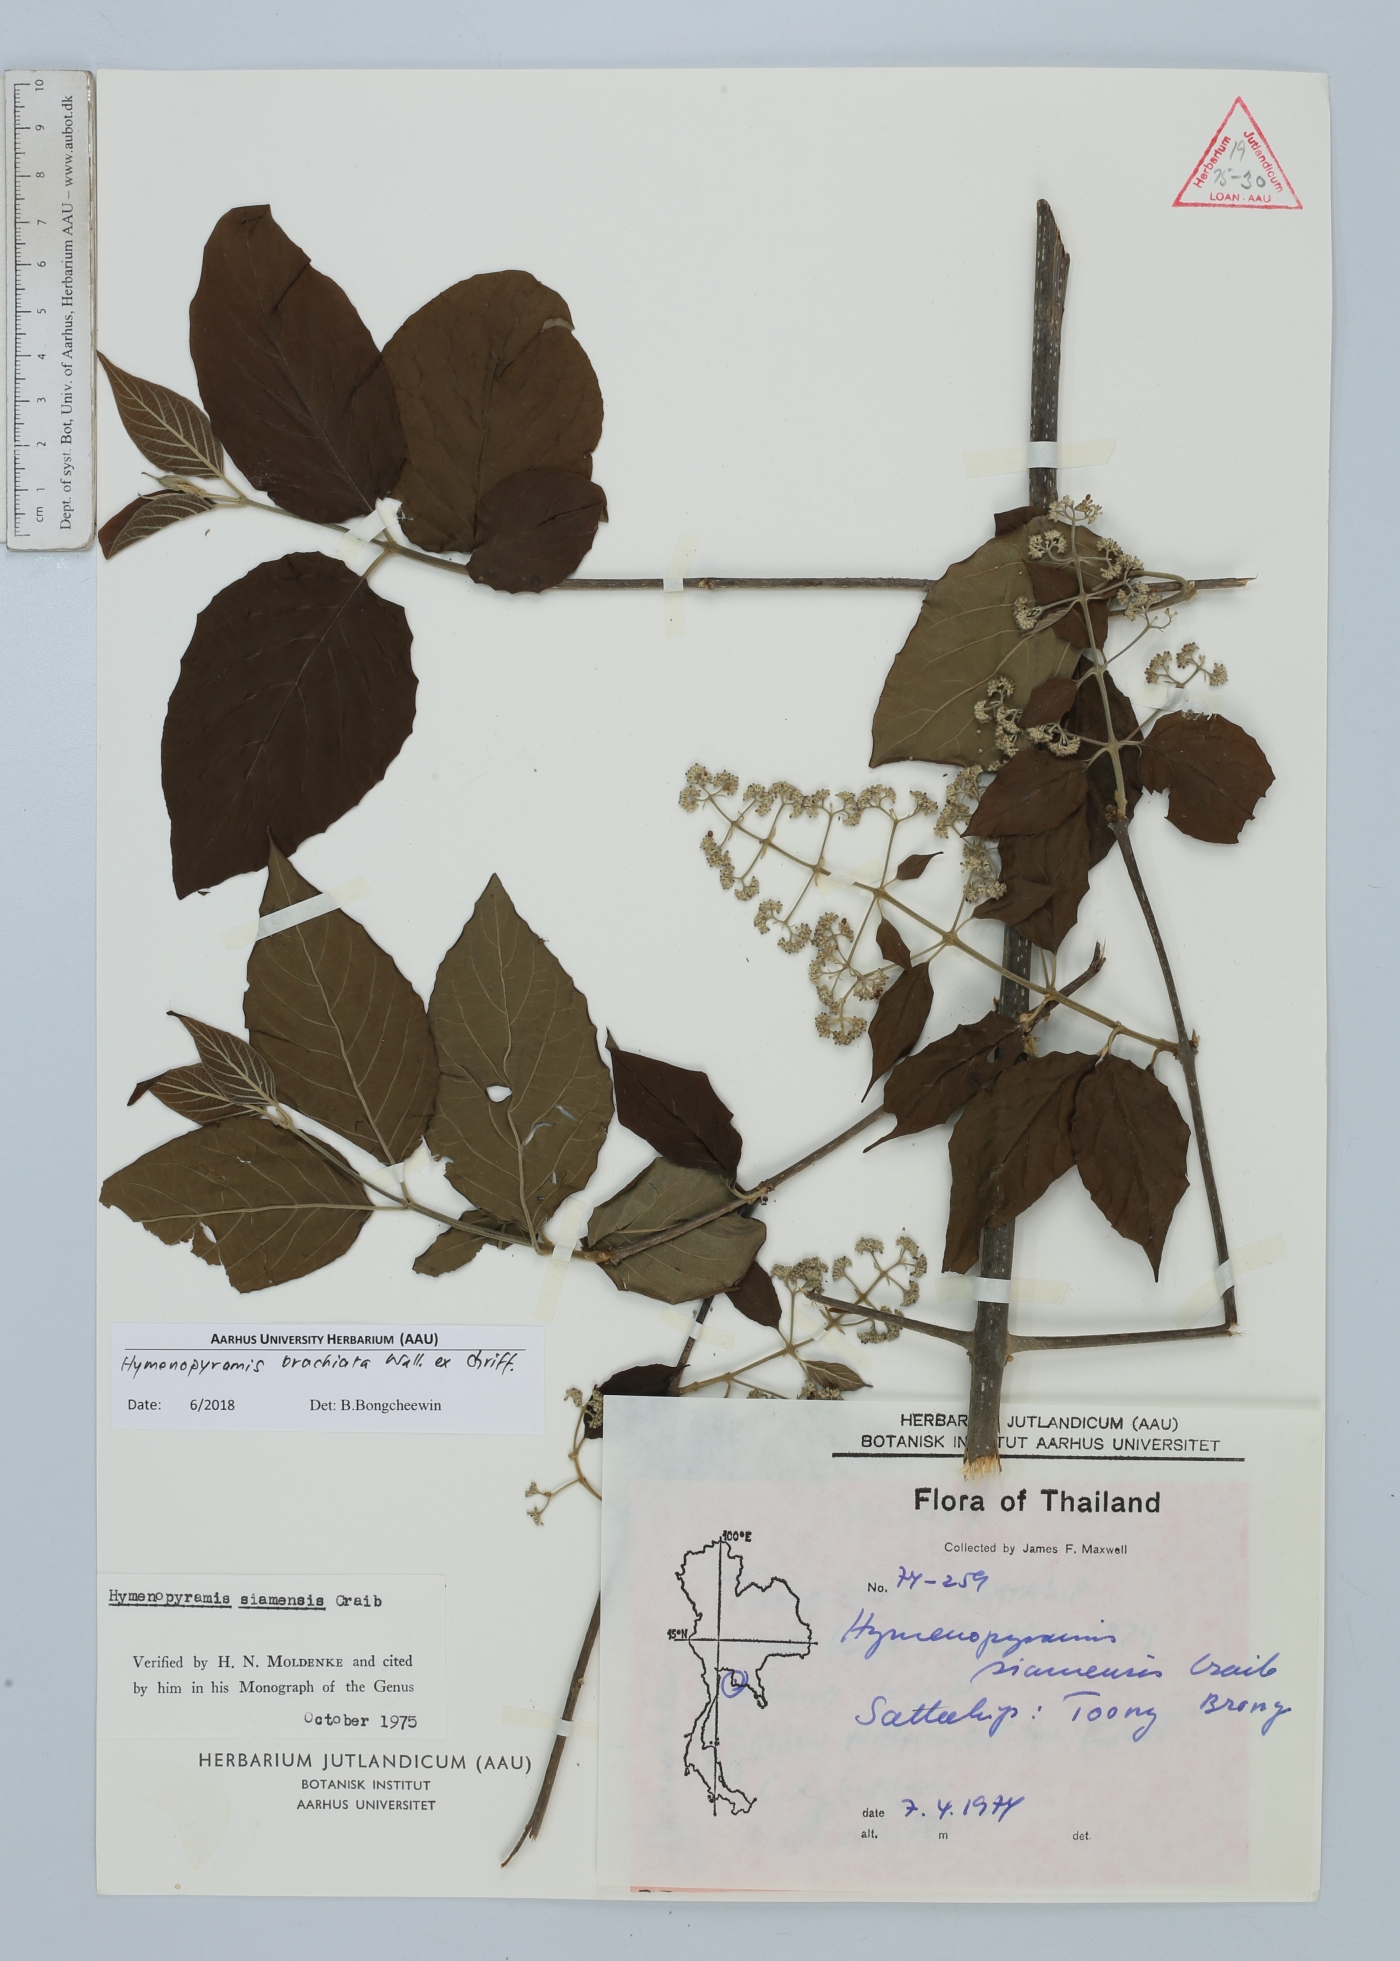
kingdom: Plantae
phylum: Tracheophyta
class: Magnoliopsida
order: Lamiales
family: Lamiaceae
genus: Hymenopyramis
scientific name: Hymenopyramis brachiata
